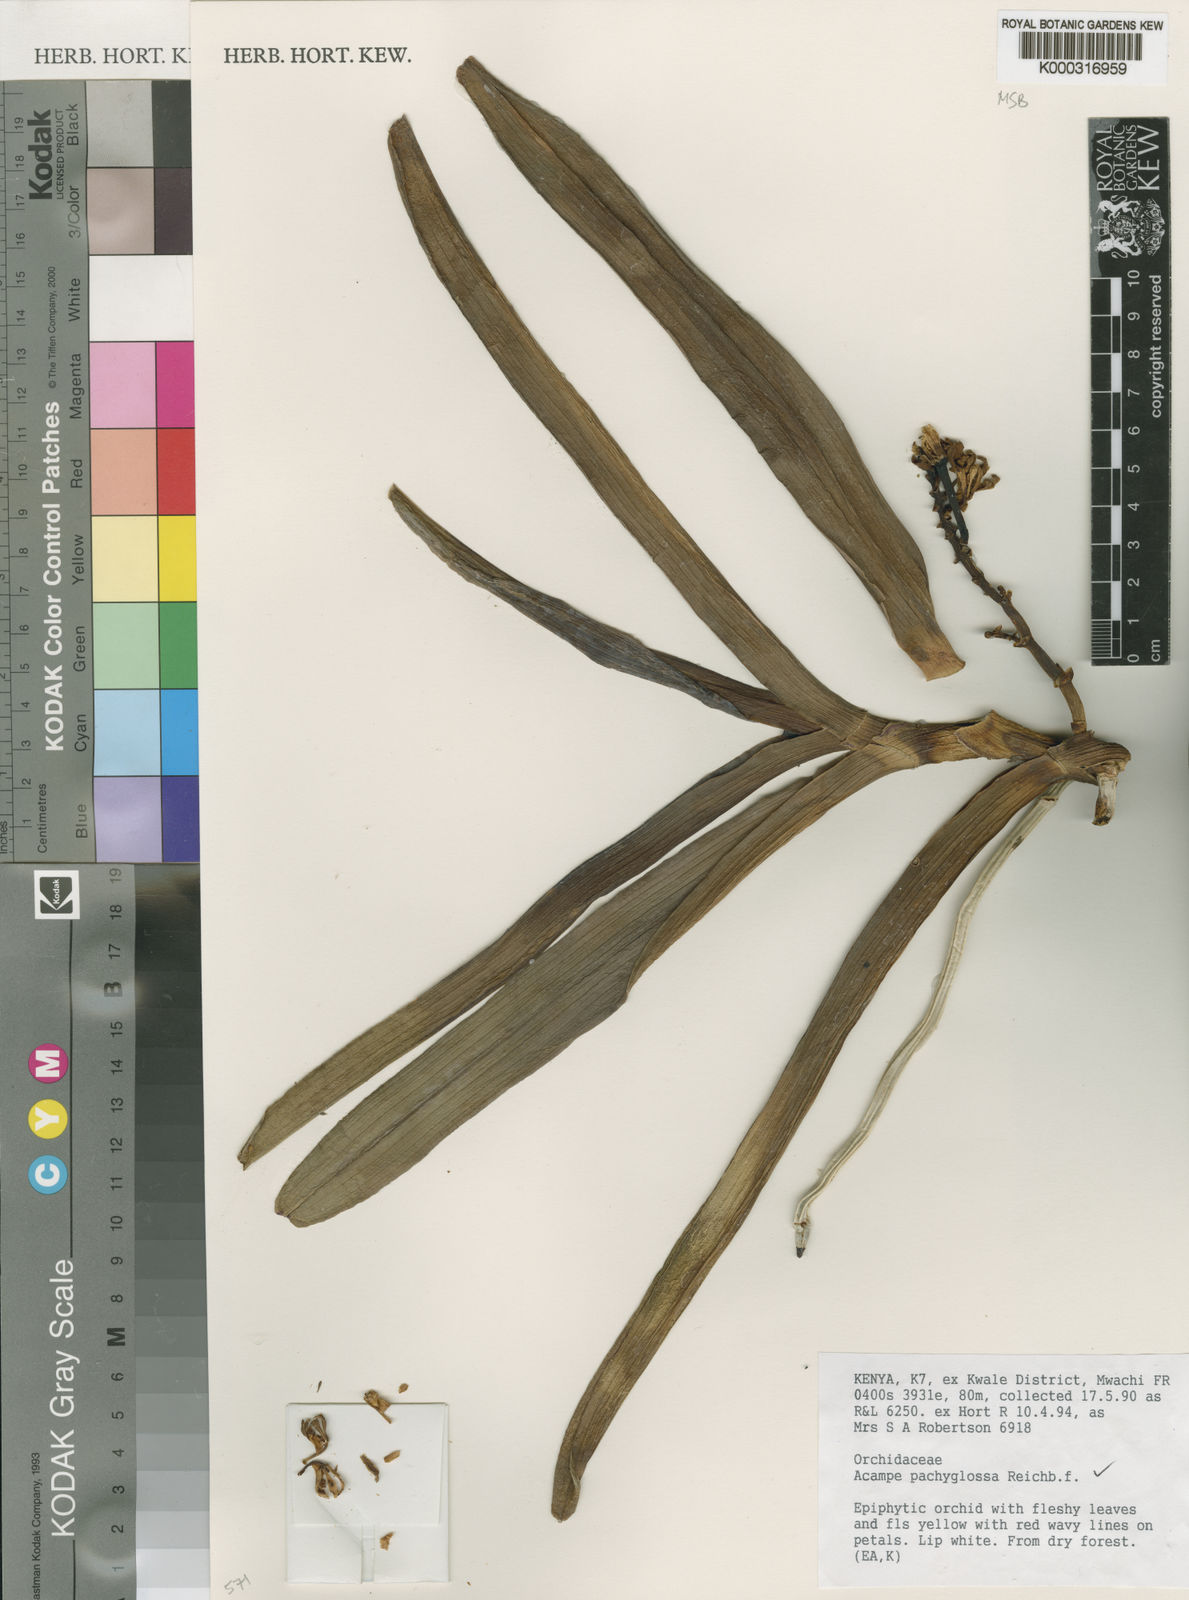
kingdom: Plantae
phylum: Tracheophyta
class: Liliopsida
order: Asparagales
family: Orchidaceae
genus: Acampe
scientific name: Acampe pachyglossa
